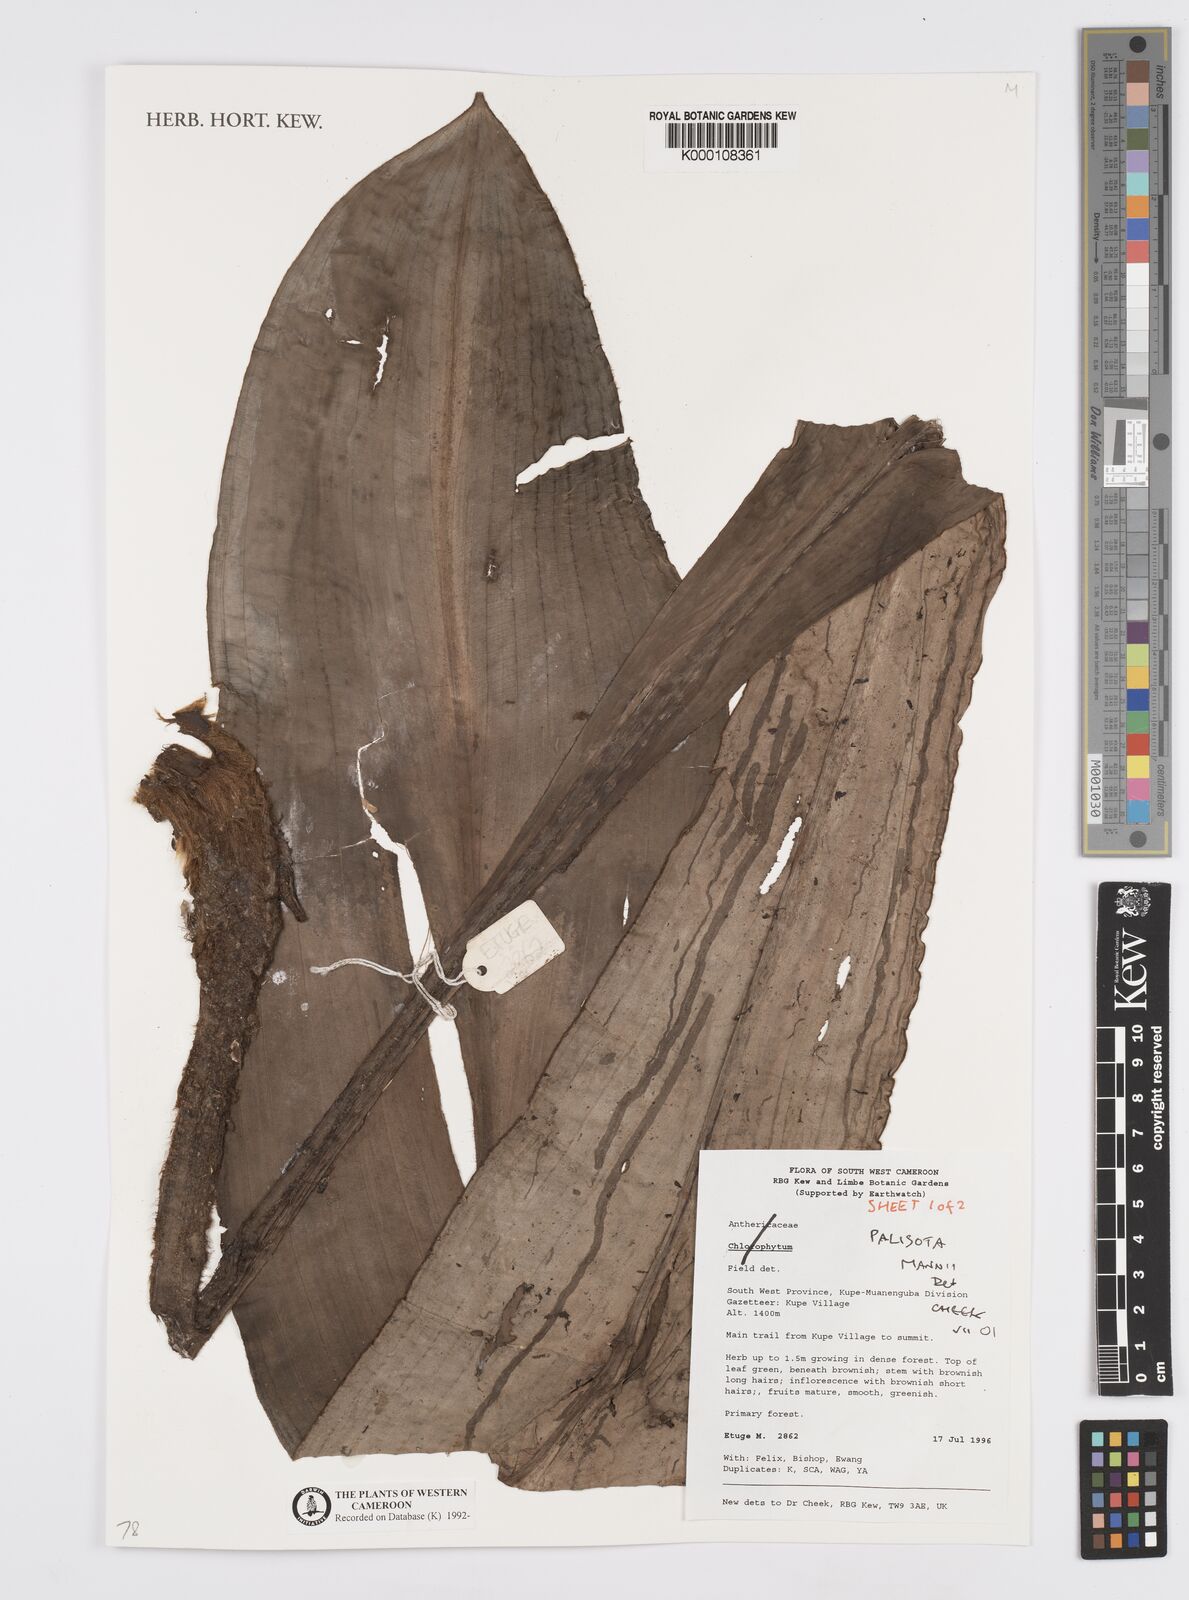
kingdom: Plantae
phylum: Tracheophyta
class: Liliopsida
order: Commelinales
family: Commelinaceae
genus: Palisota
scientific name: Palisota mannii
